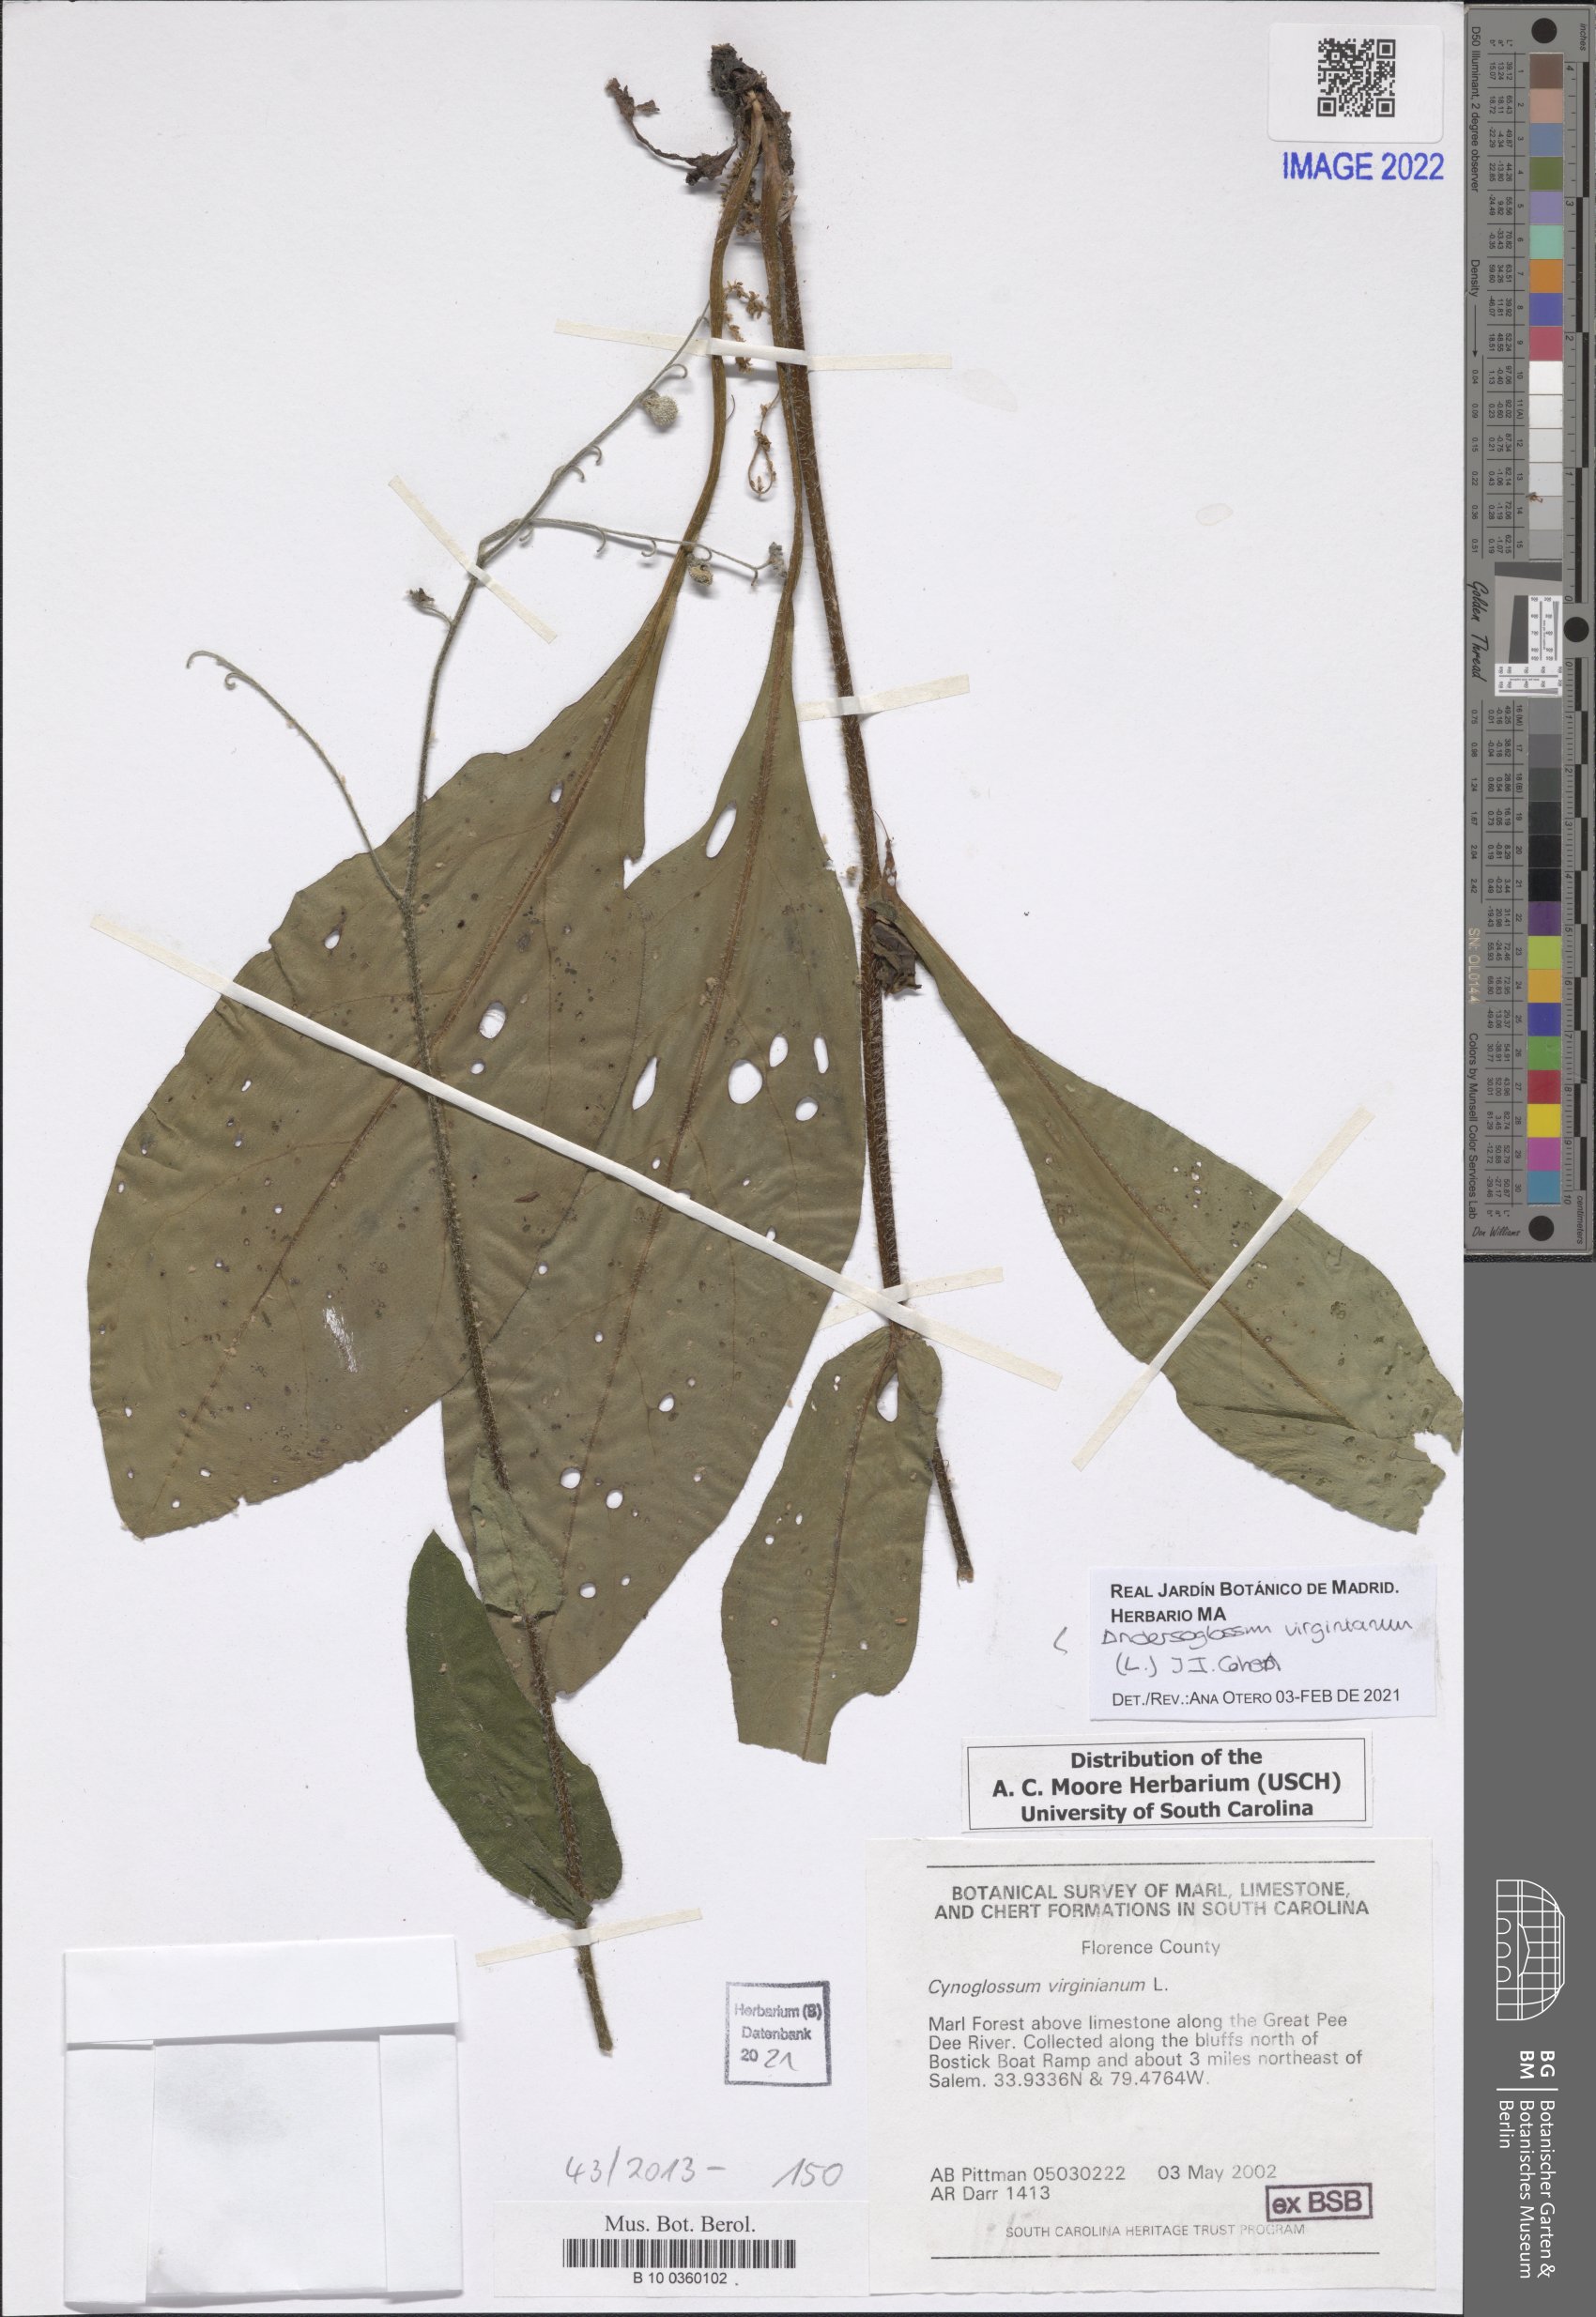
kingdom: Plantae
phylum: Tracheophyta
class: Magnoliopsida
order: Boraginales
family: Boraginaceae
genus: Andersonglossum
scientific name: Andersonglossum virginianum
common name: Wild comfrey
